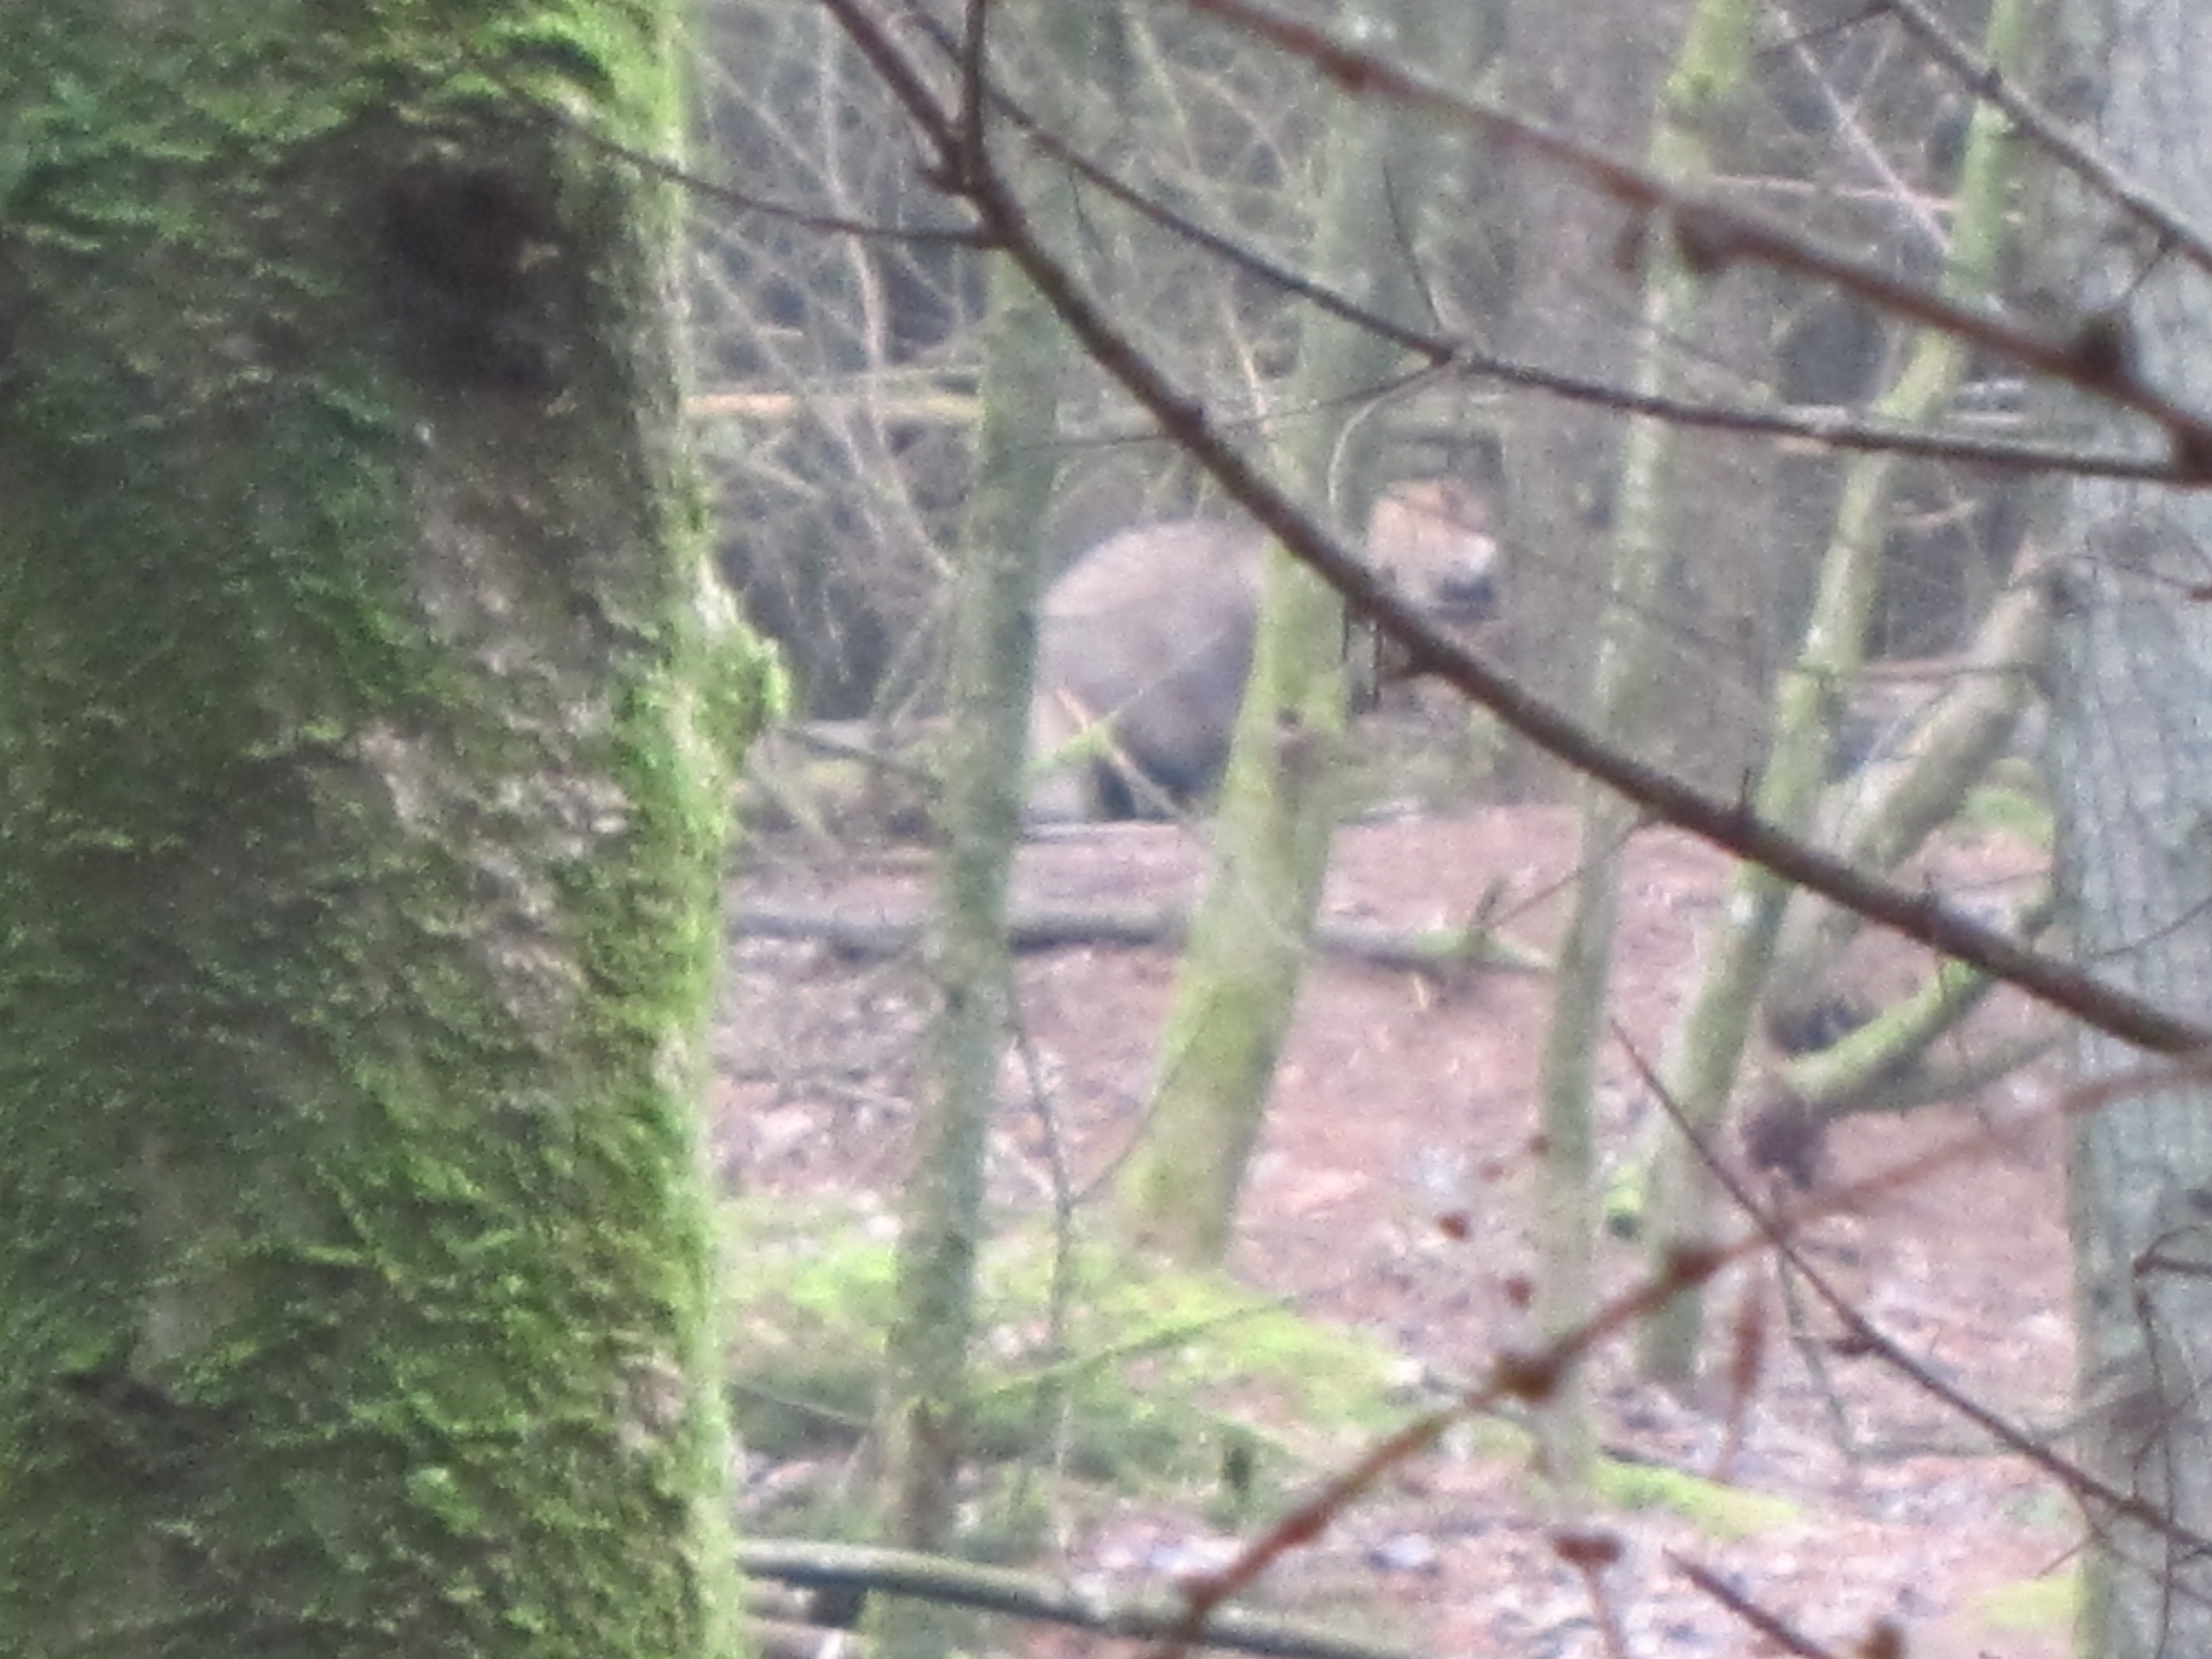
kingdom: Animalia
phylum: Chordata
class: Mammalia
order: Carnivora
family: Canidae
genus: Nyctereutes
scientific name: Nyctereutes procyonoides
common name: Mårhund
